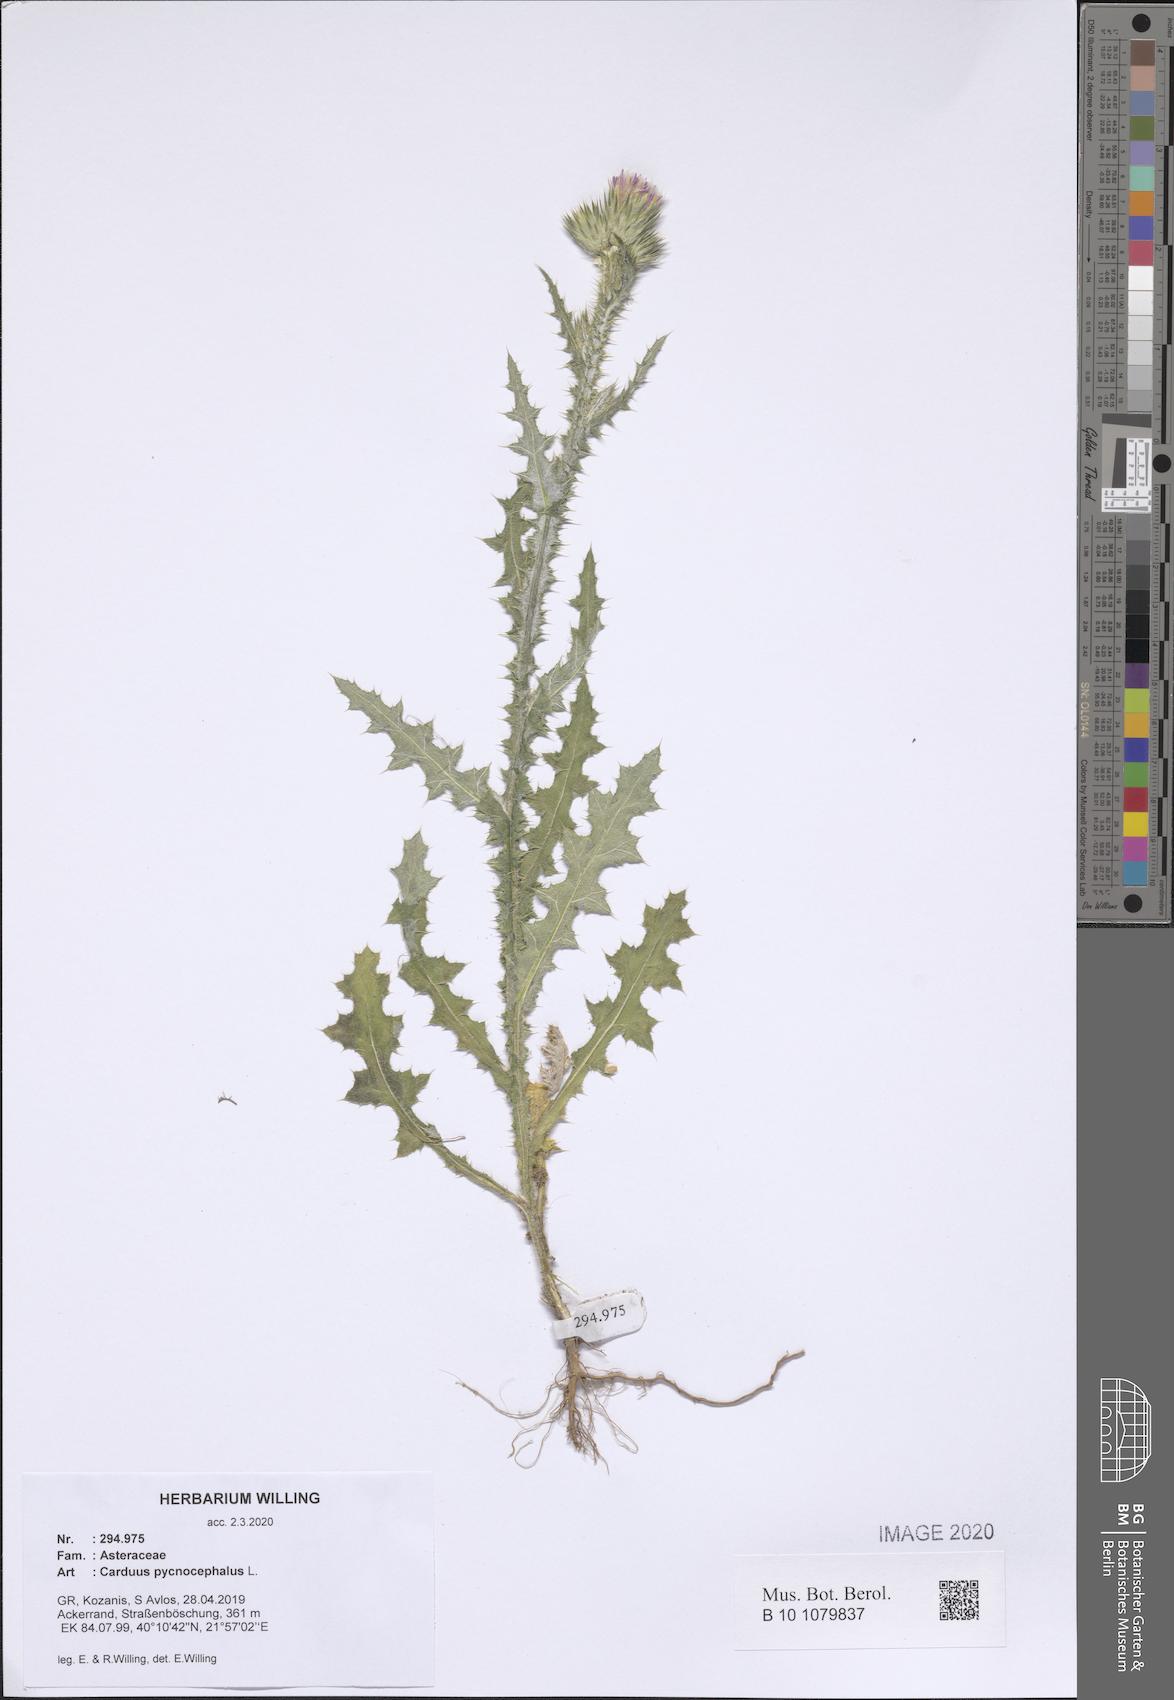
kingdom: Plantae
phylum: Tracheophyta
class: Magnoliopsida
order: Asterales
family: Asteraceae
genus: Carduus
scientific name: Carduus pycnocephalus
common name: Plymouth thistle
